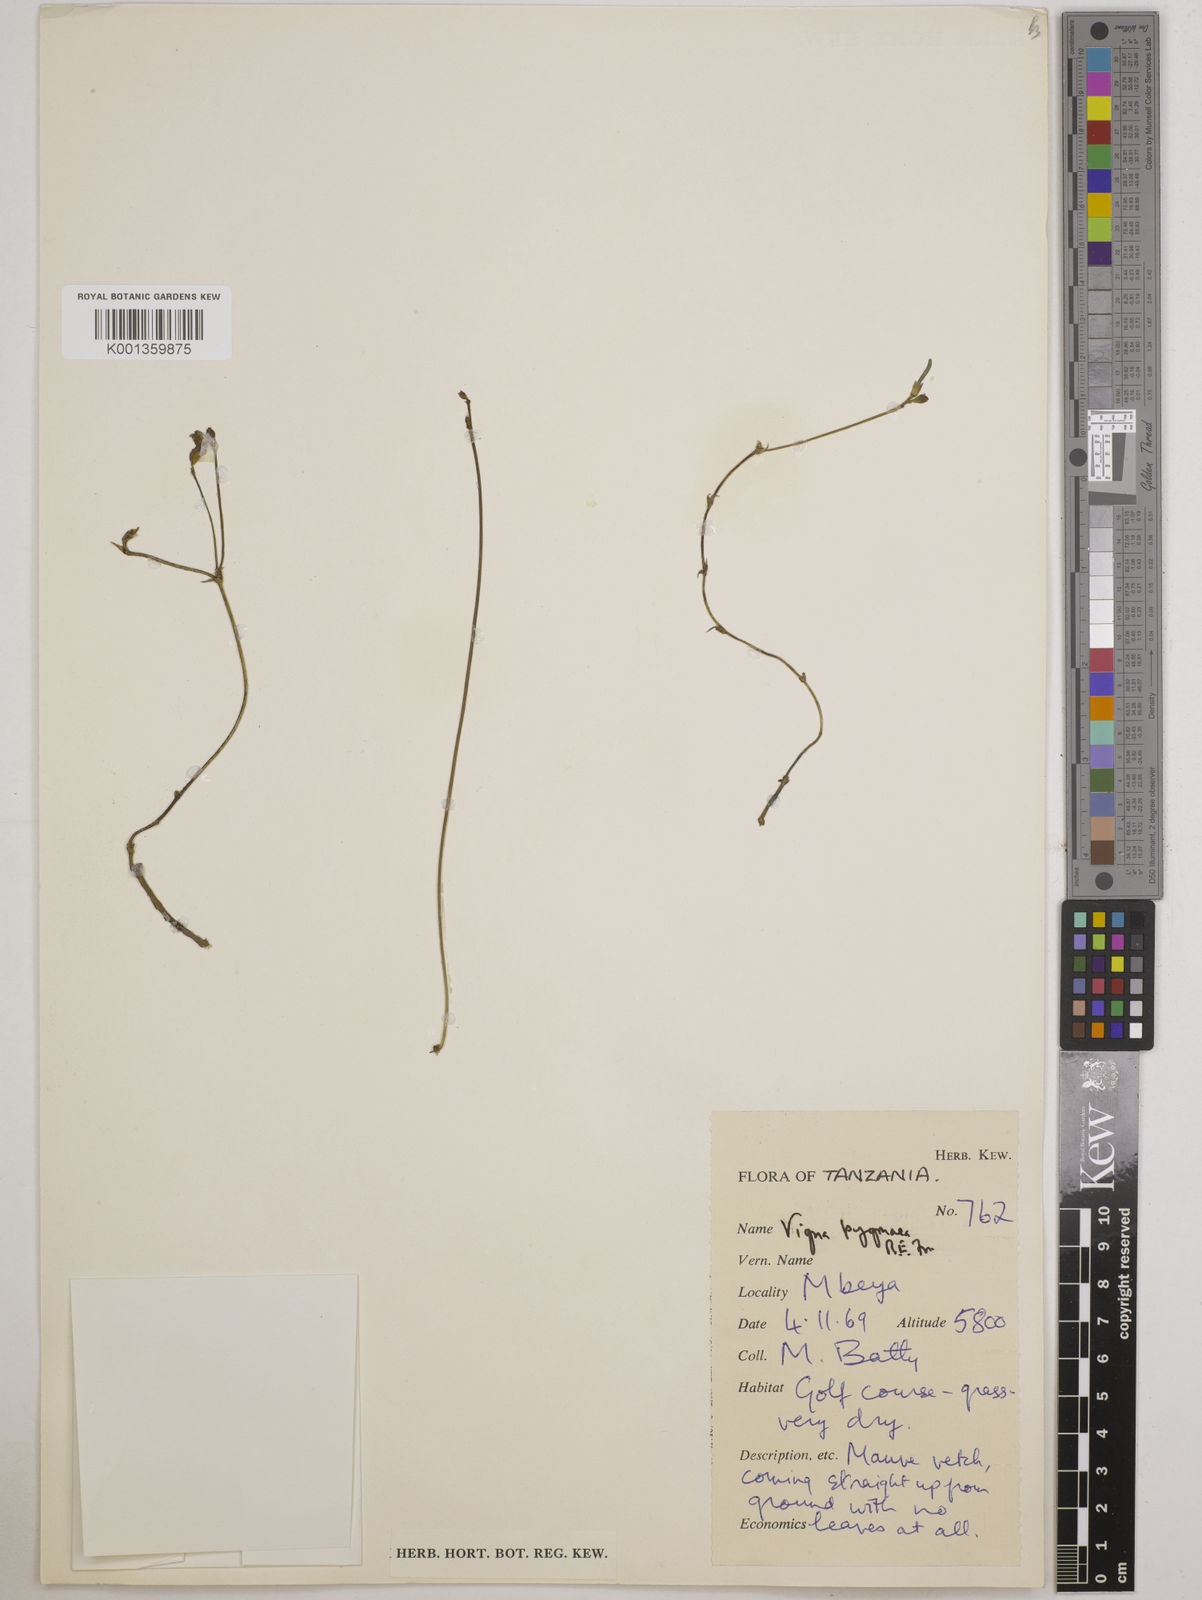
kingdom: Plantae
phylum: Tracheophyta
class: Magnoliopsida
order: Fabales
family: Fabaceae
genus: Vigna
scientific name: Vigna pygmaea
